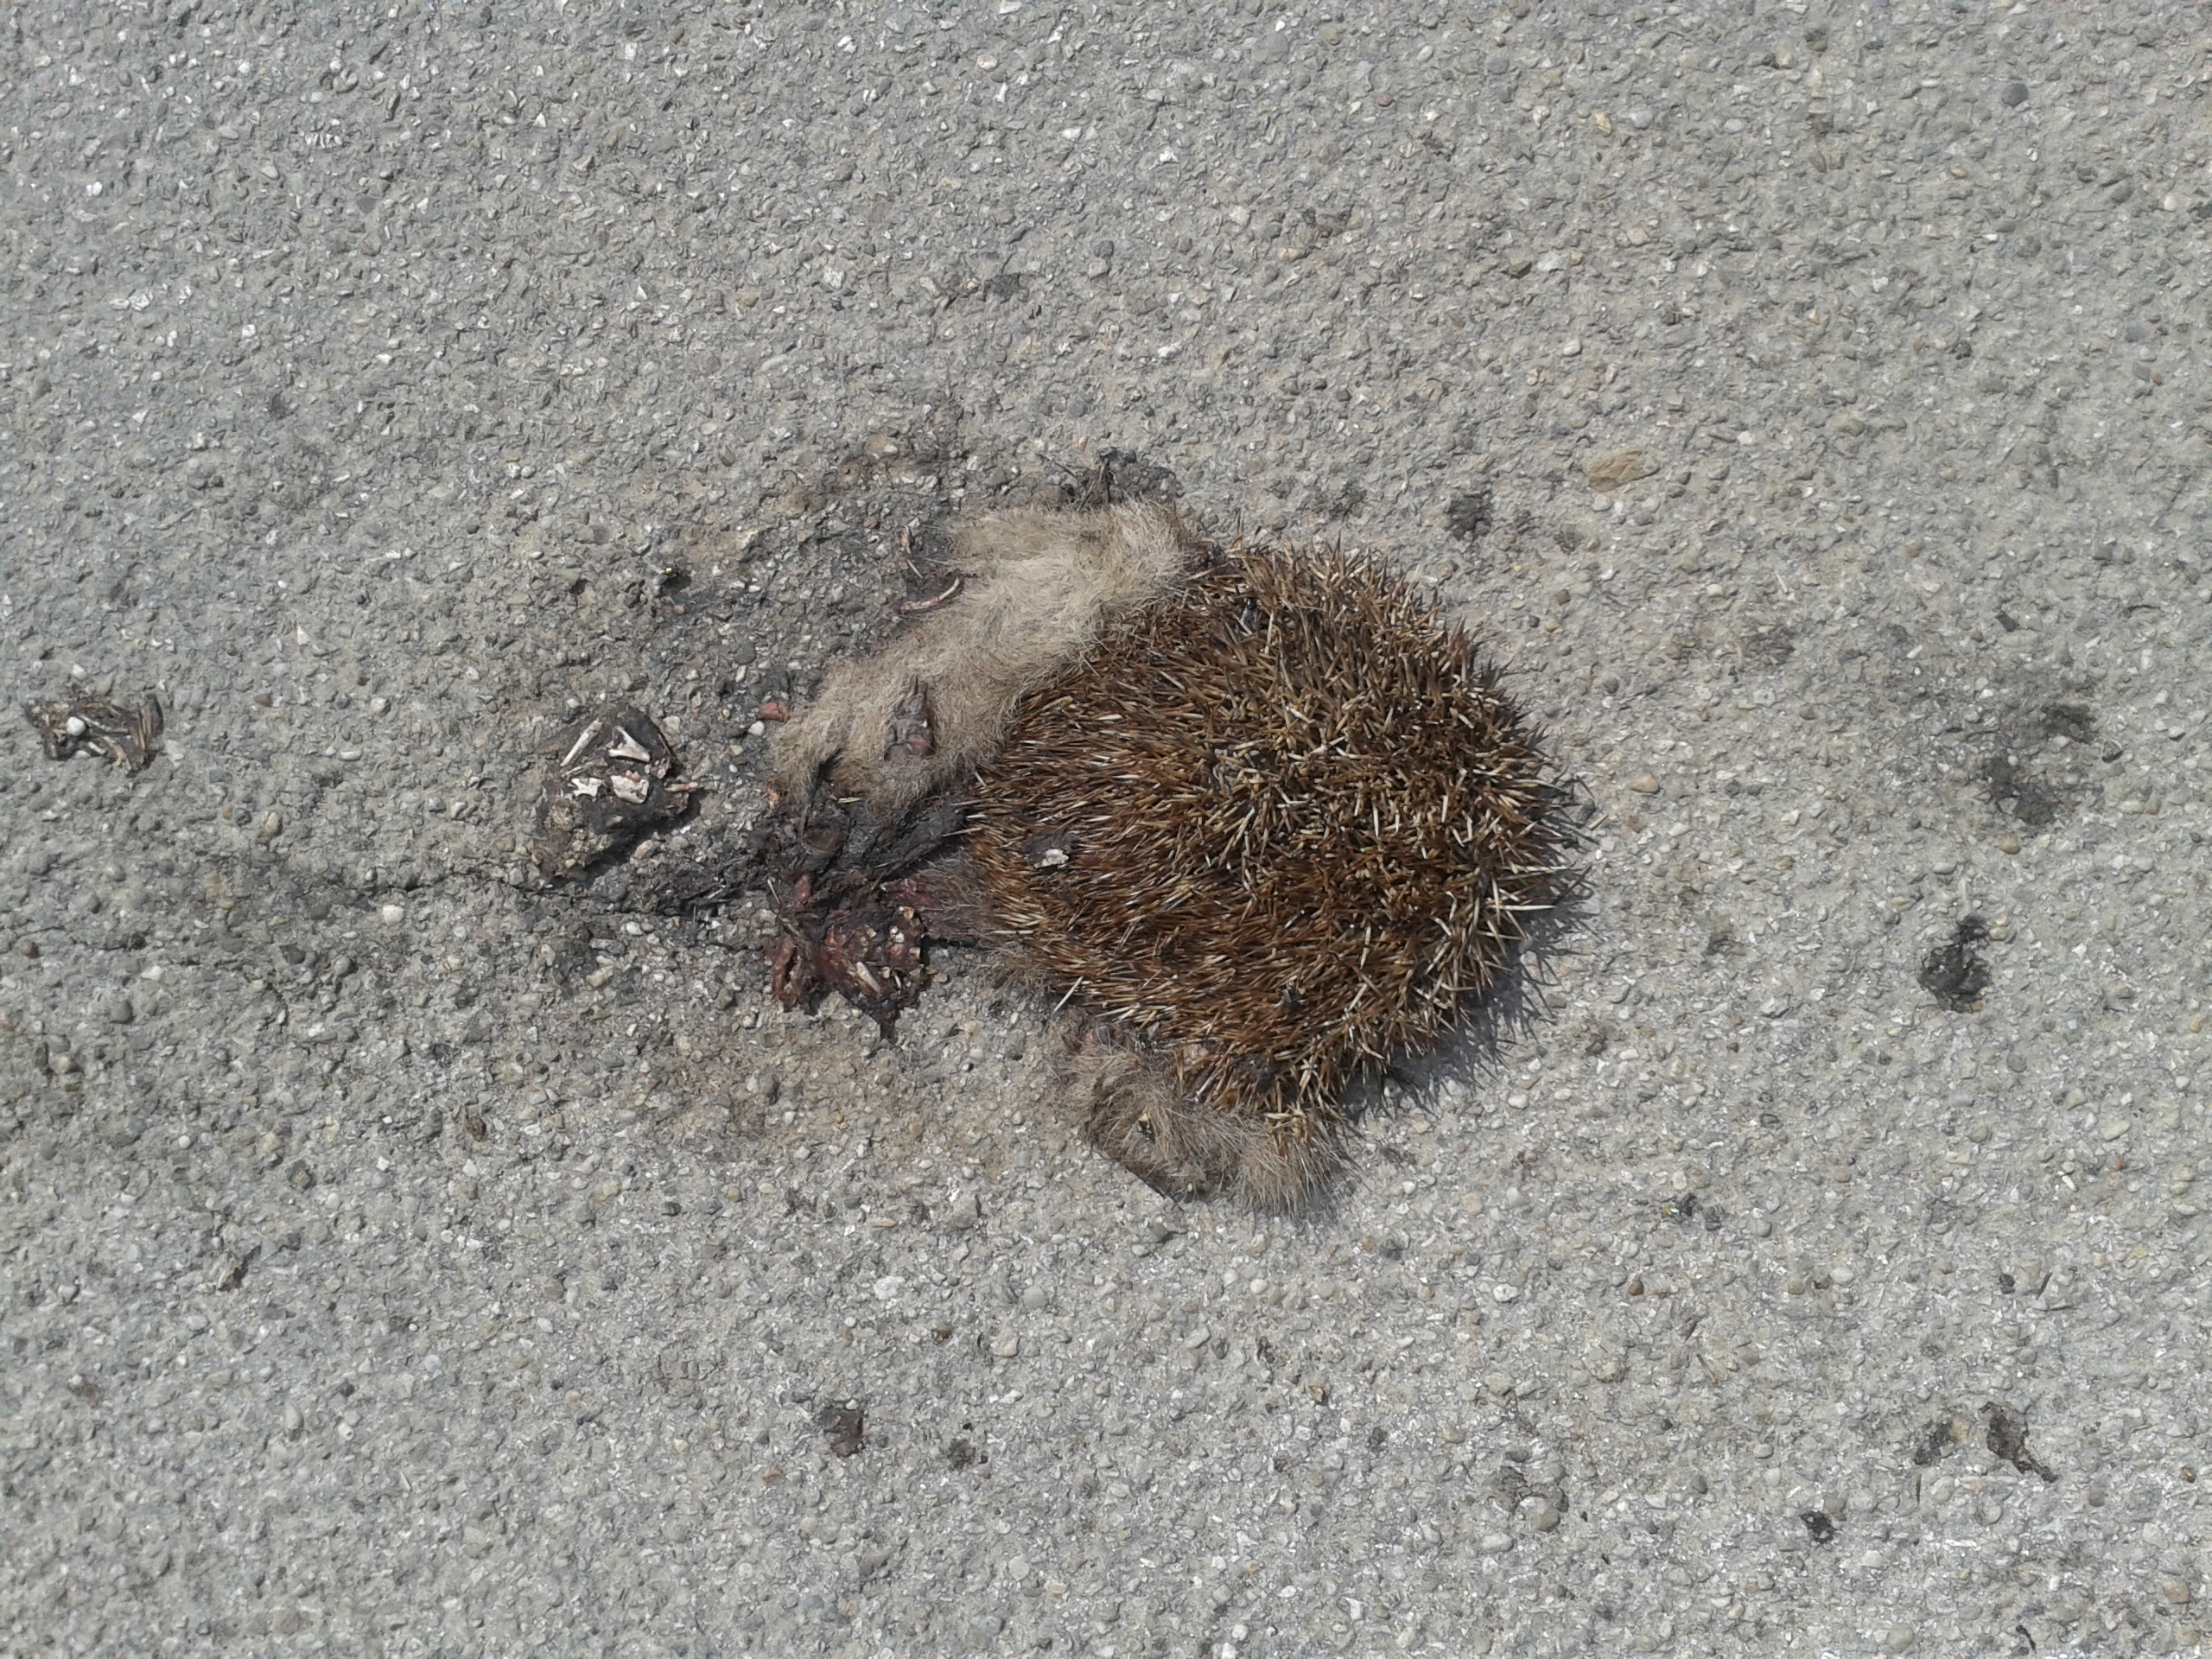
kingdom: Animalia
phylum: Chordata
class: Mammalia
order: Erinaceomorpha
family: Erinaceidae
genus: Erinaceus
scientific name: Erinaceus
